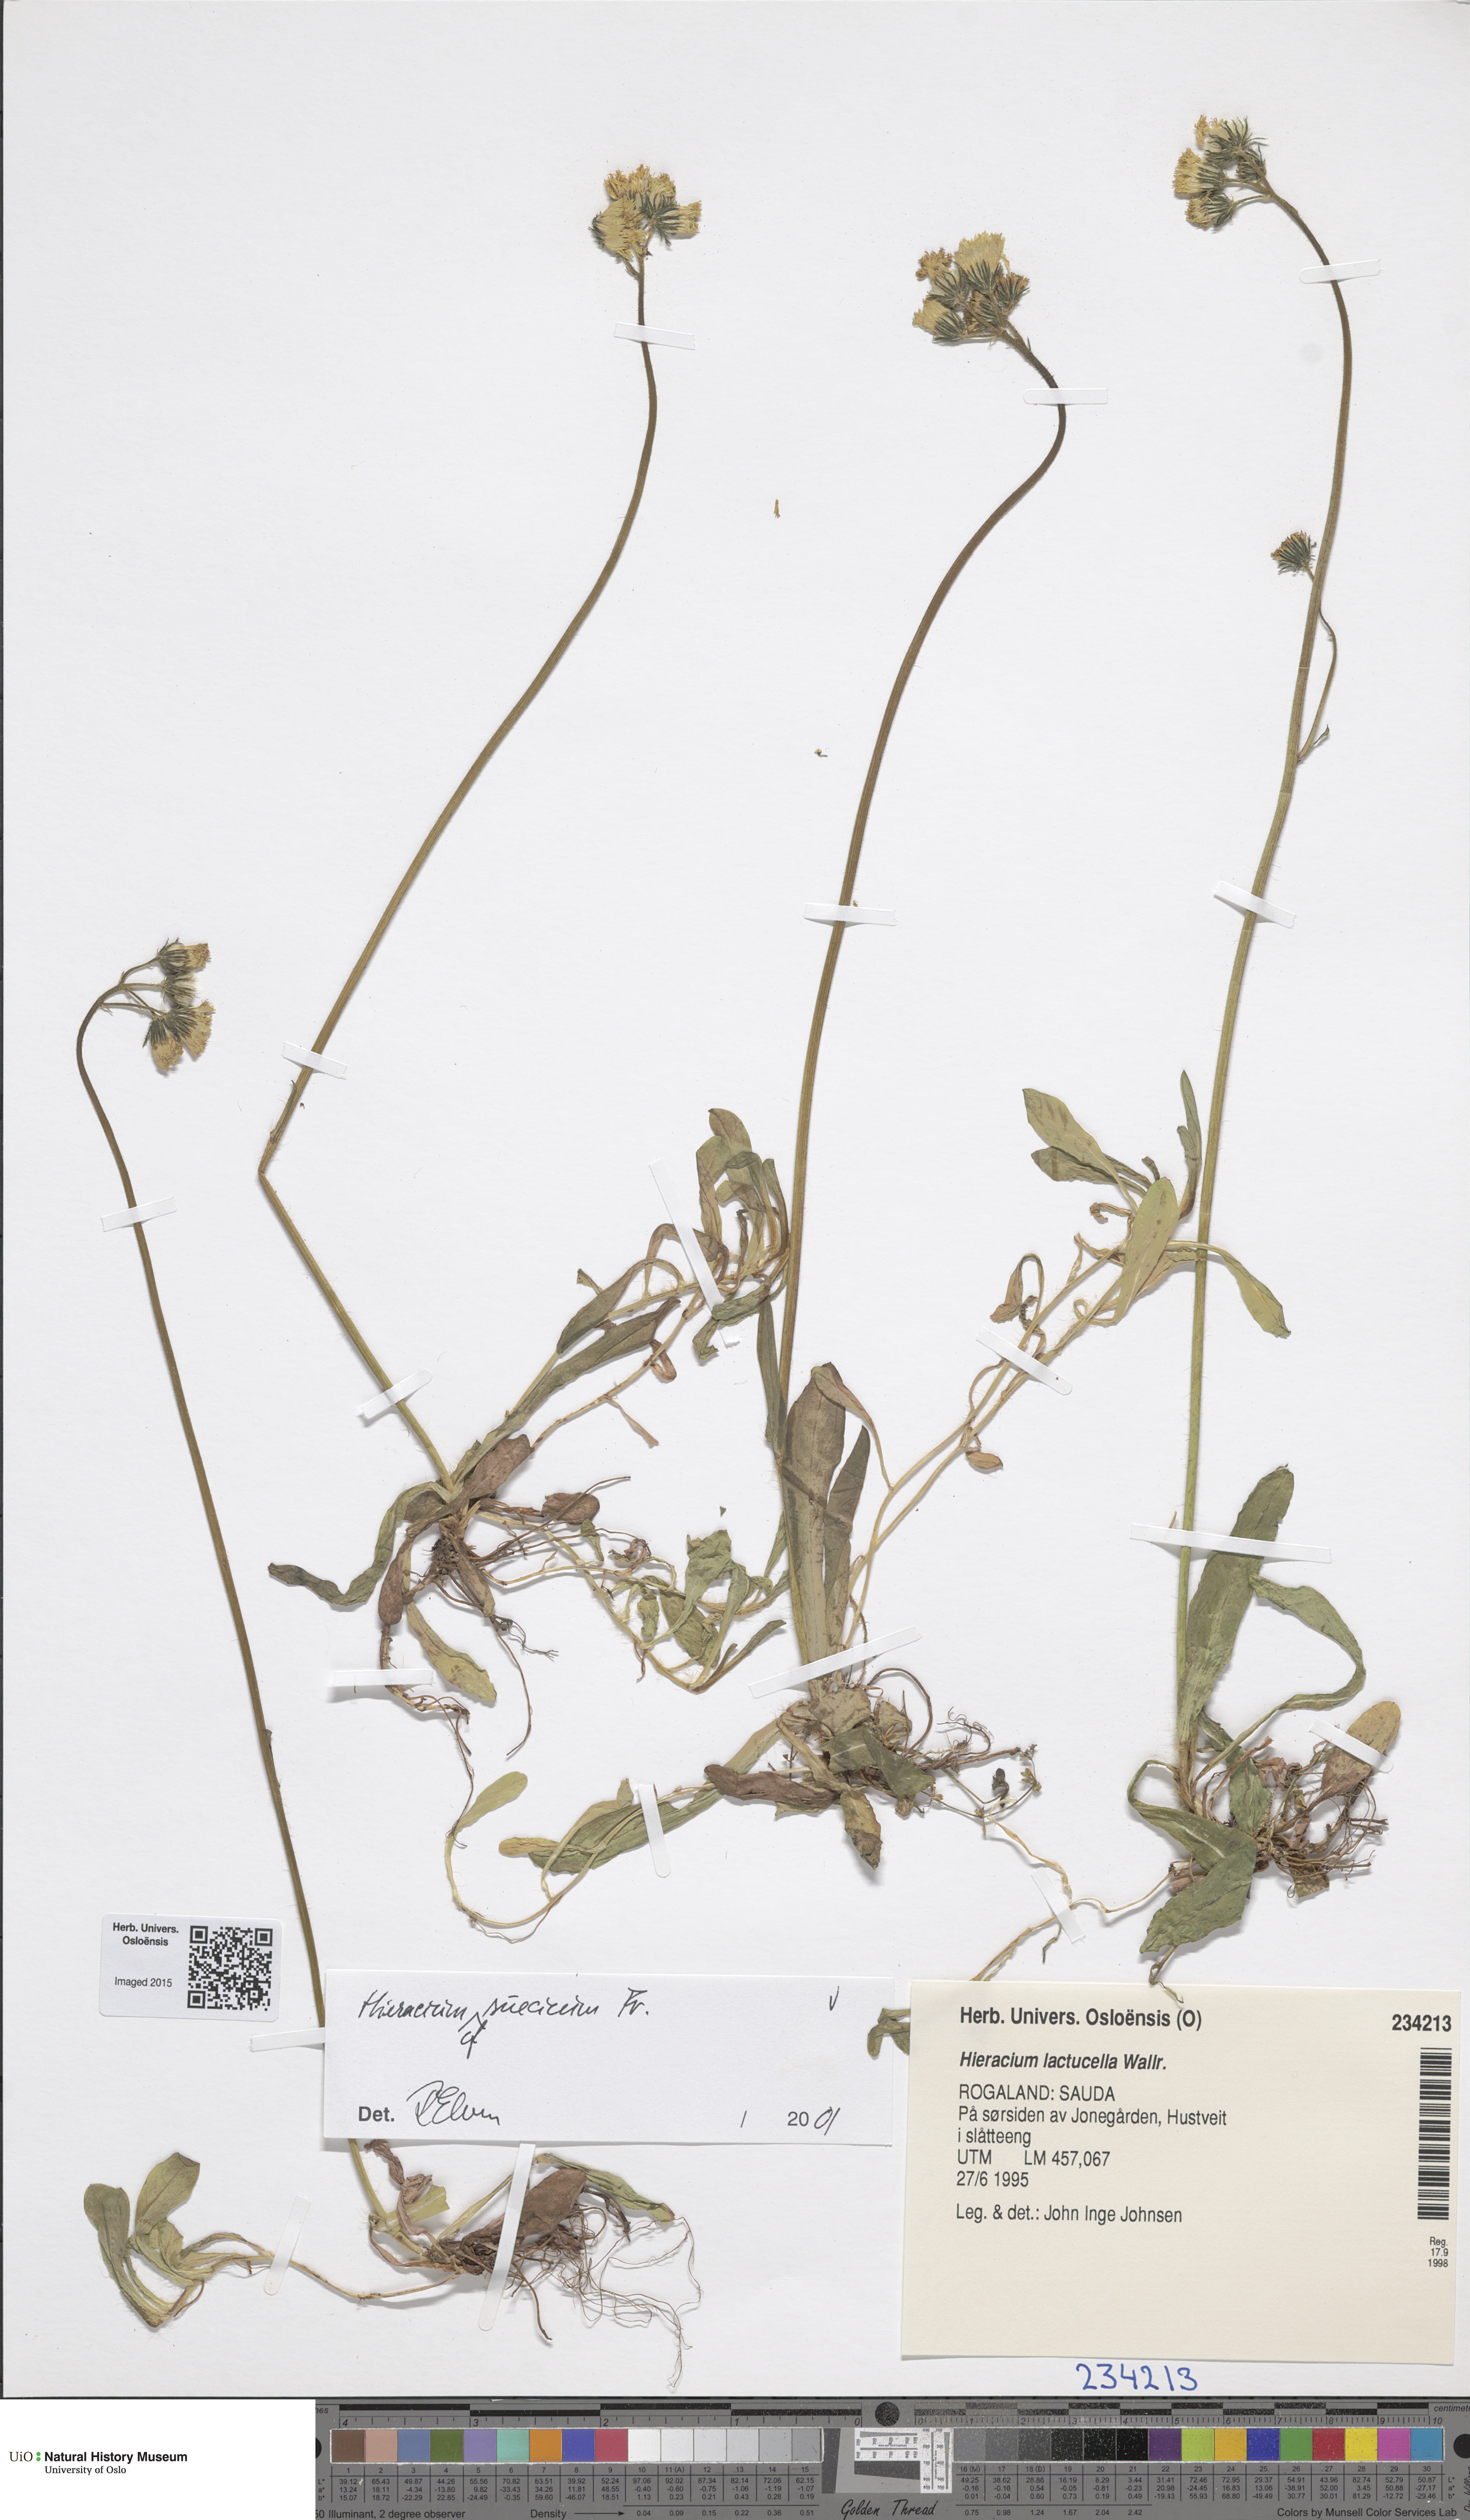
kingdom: Plantae
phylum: Tracheophyta
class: Magnoliopsida
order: Asterales
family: Asteraceae
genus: Pilosella
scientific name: Pilosella dubia
